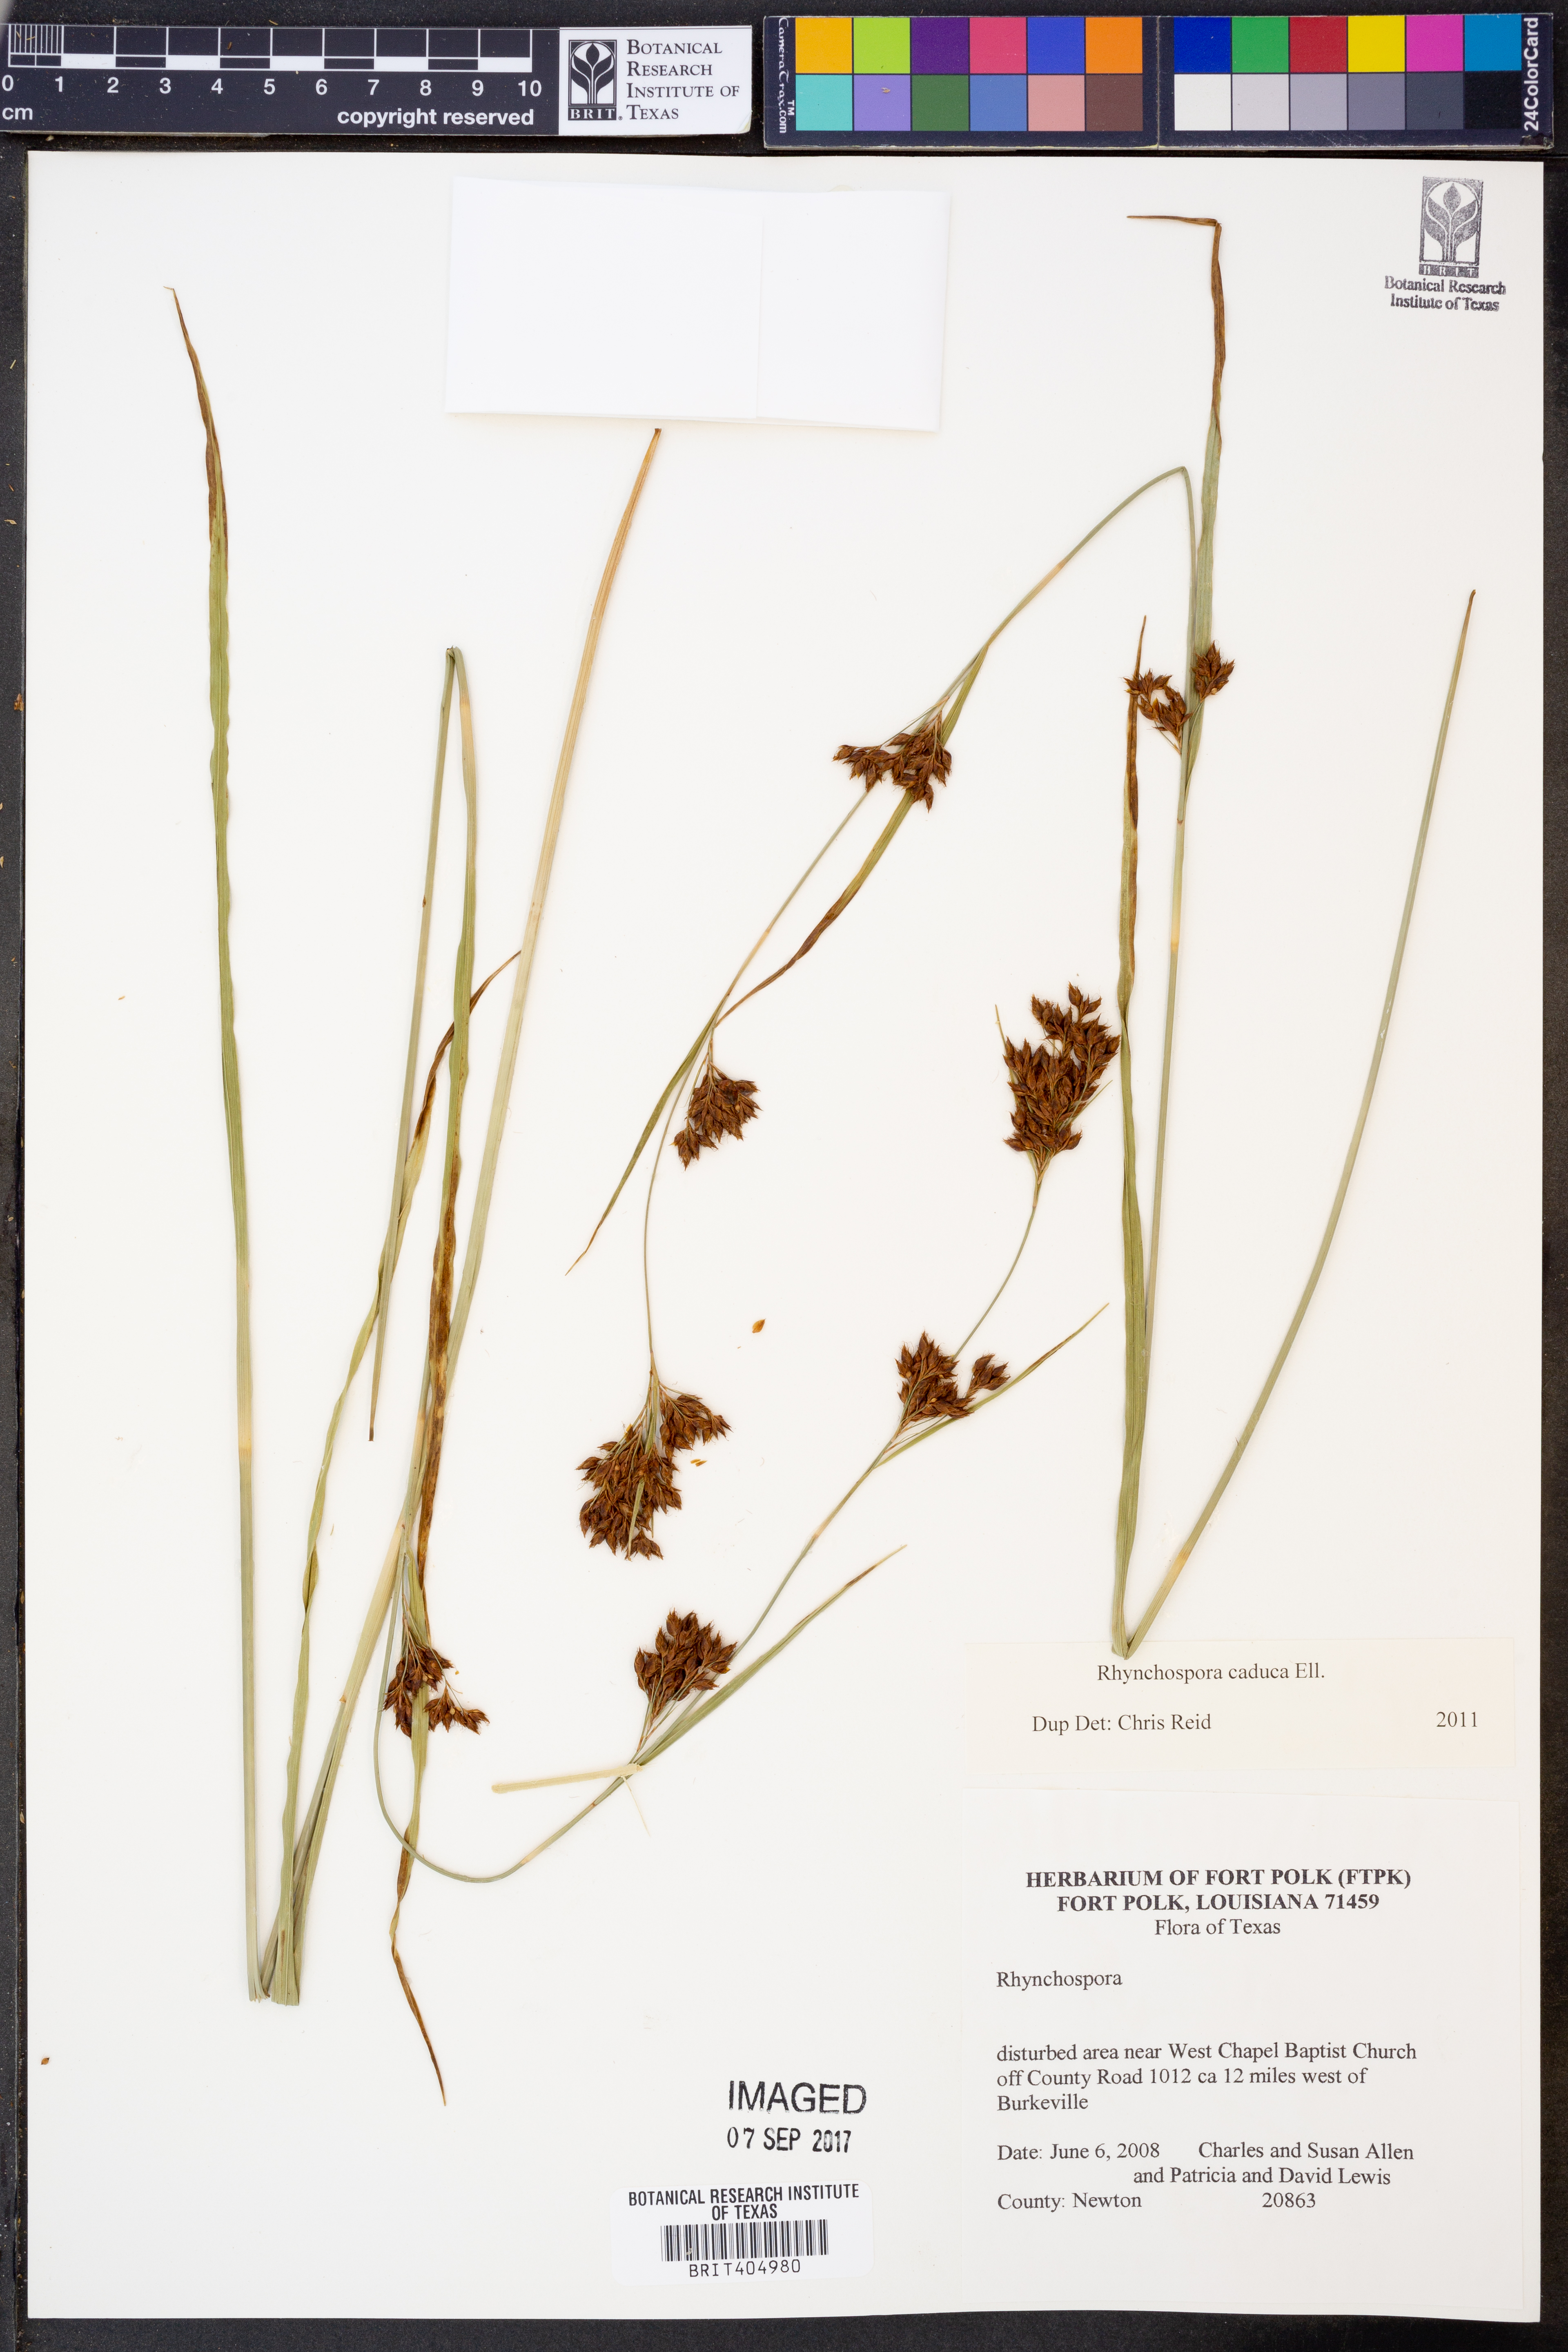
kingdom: Plantae
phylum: Tracheophyta
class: Liliopsida
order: Poales
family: Cyperaceae
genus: Rhynchospora
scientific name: Rhynchospora caduca
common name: Anglestem beaksedge
